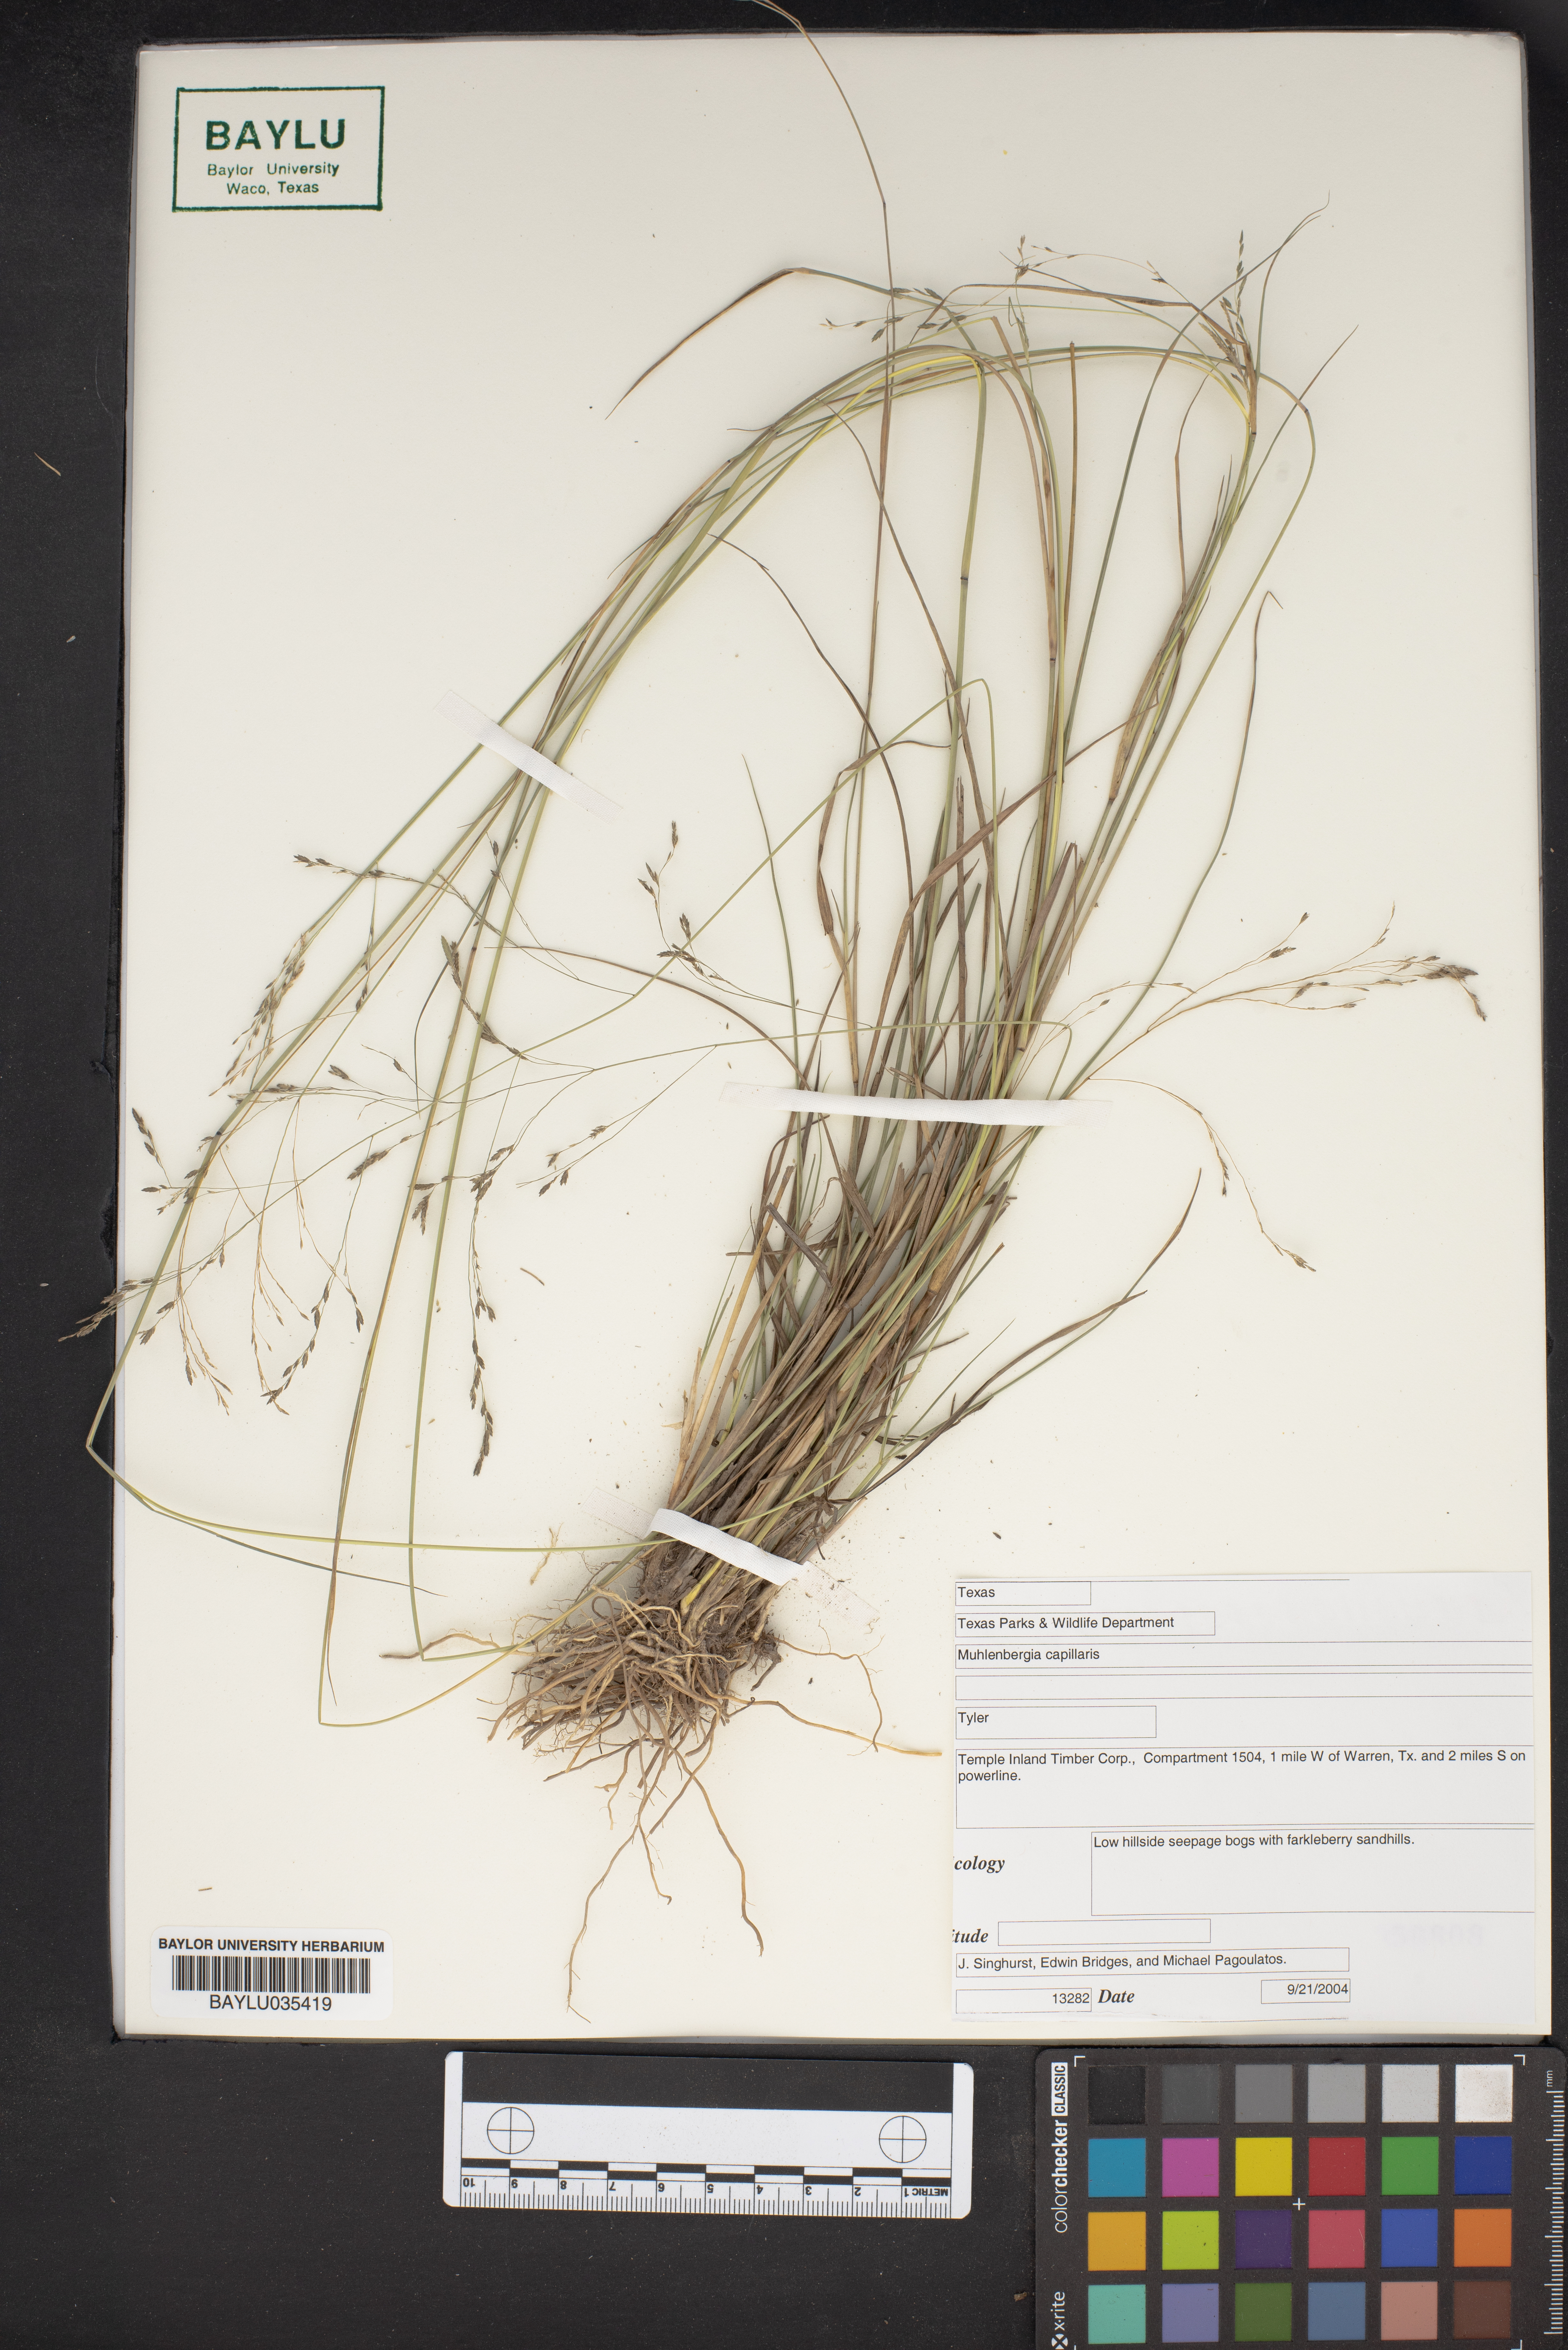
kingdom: Plantae
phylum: Tracheophyta
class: Liliopsida
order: Poales
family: Poaceae
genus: Muhlenbergia
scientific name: Muhlenbergia capillaris
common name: Purple grass
